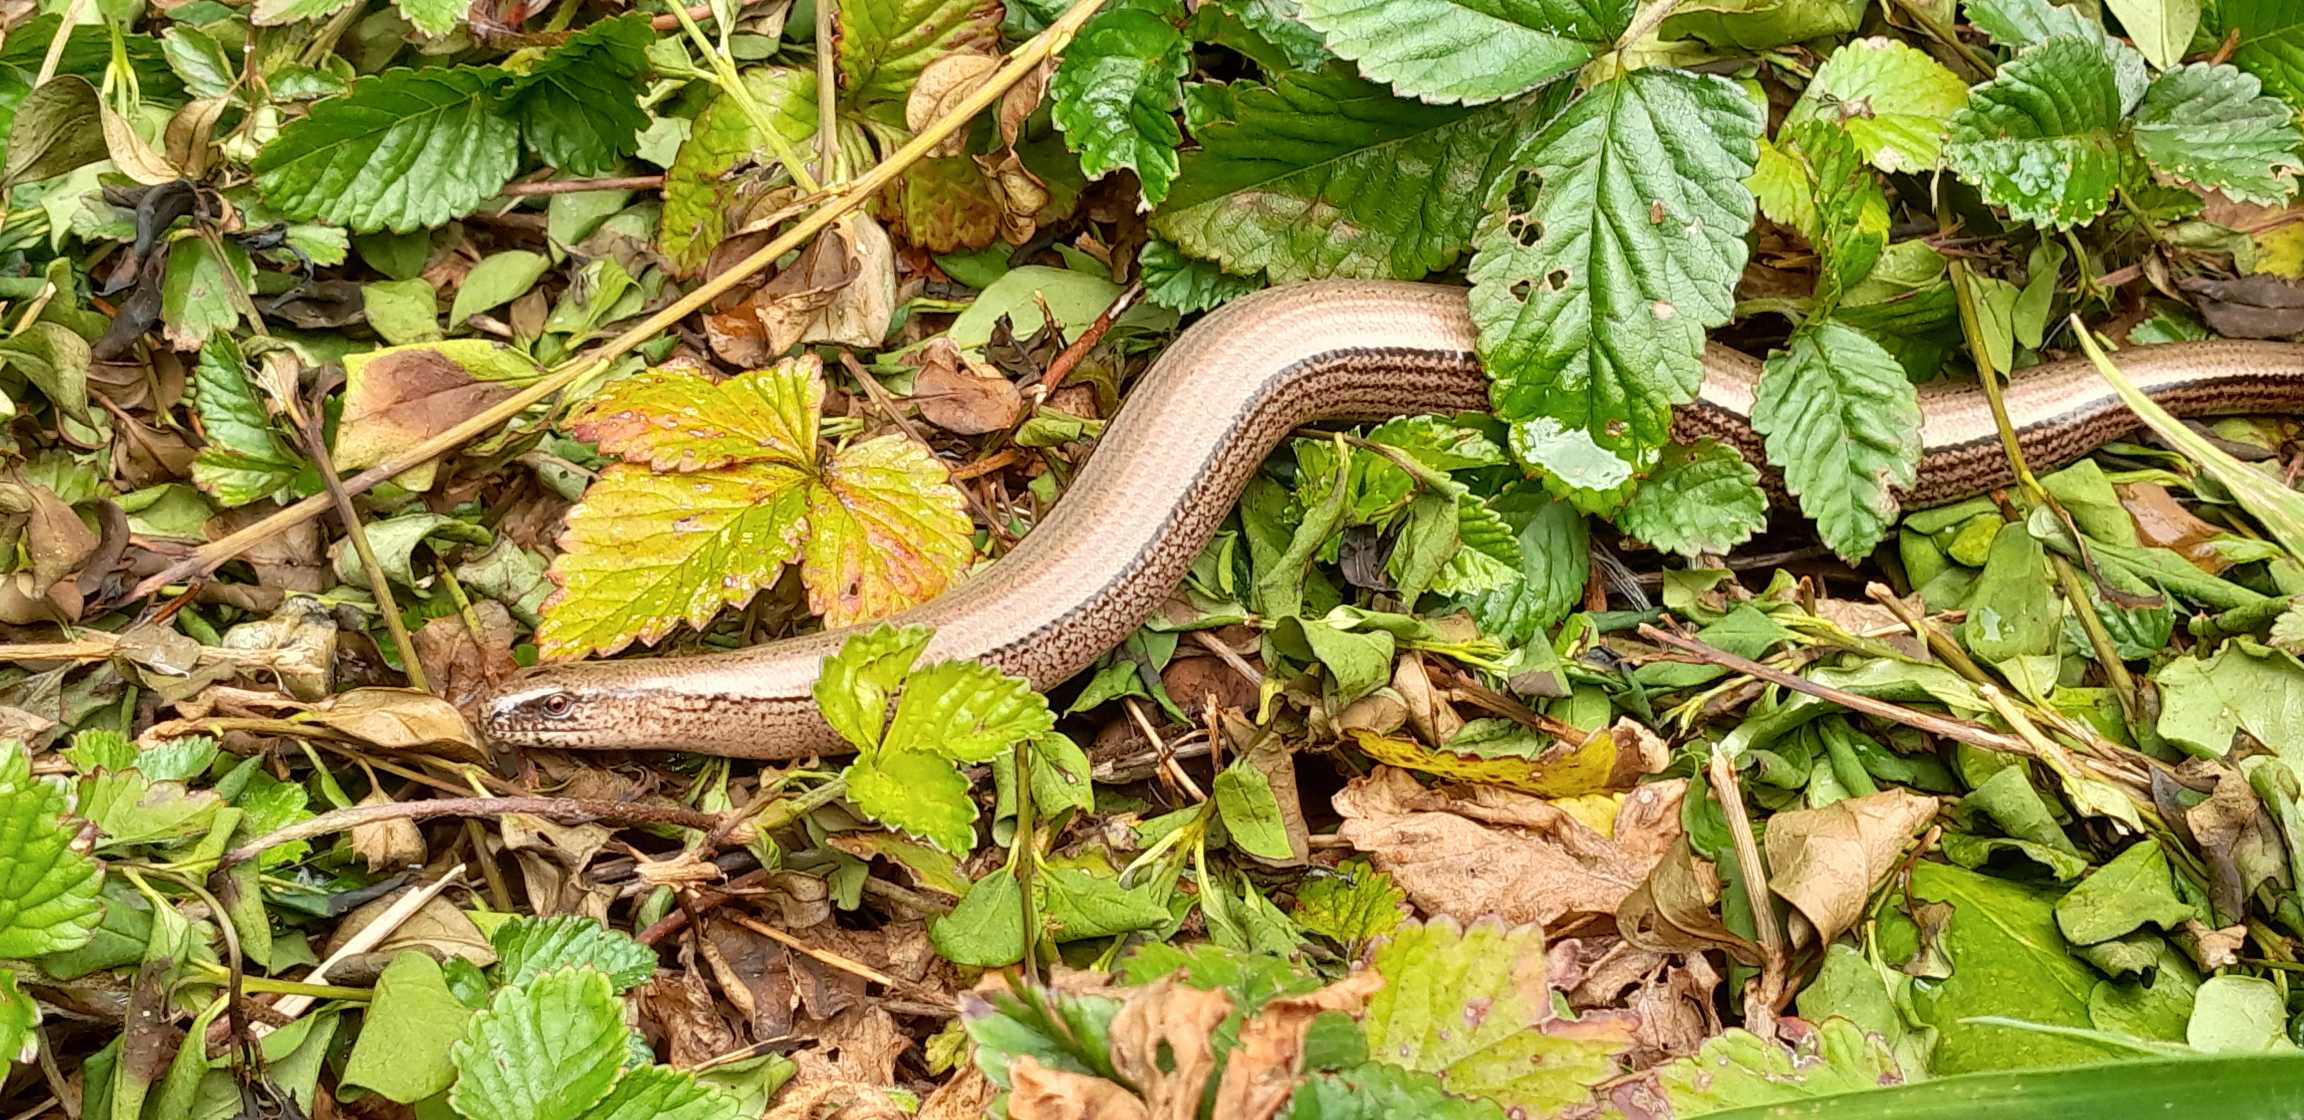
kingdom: Animalia
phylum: Chordata
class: Squamata
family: Anguidae
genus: Anguis
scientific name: Anguis fragilis
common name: Stålorm
